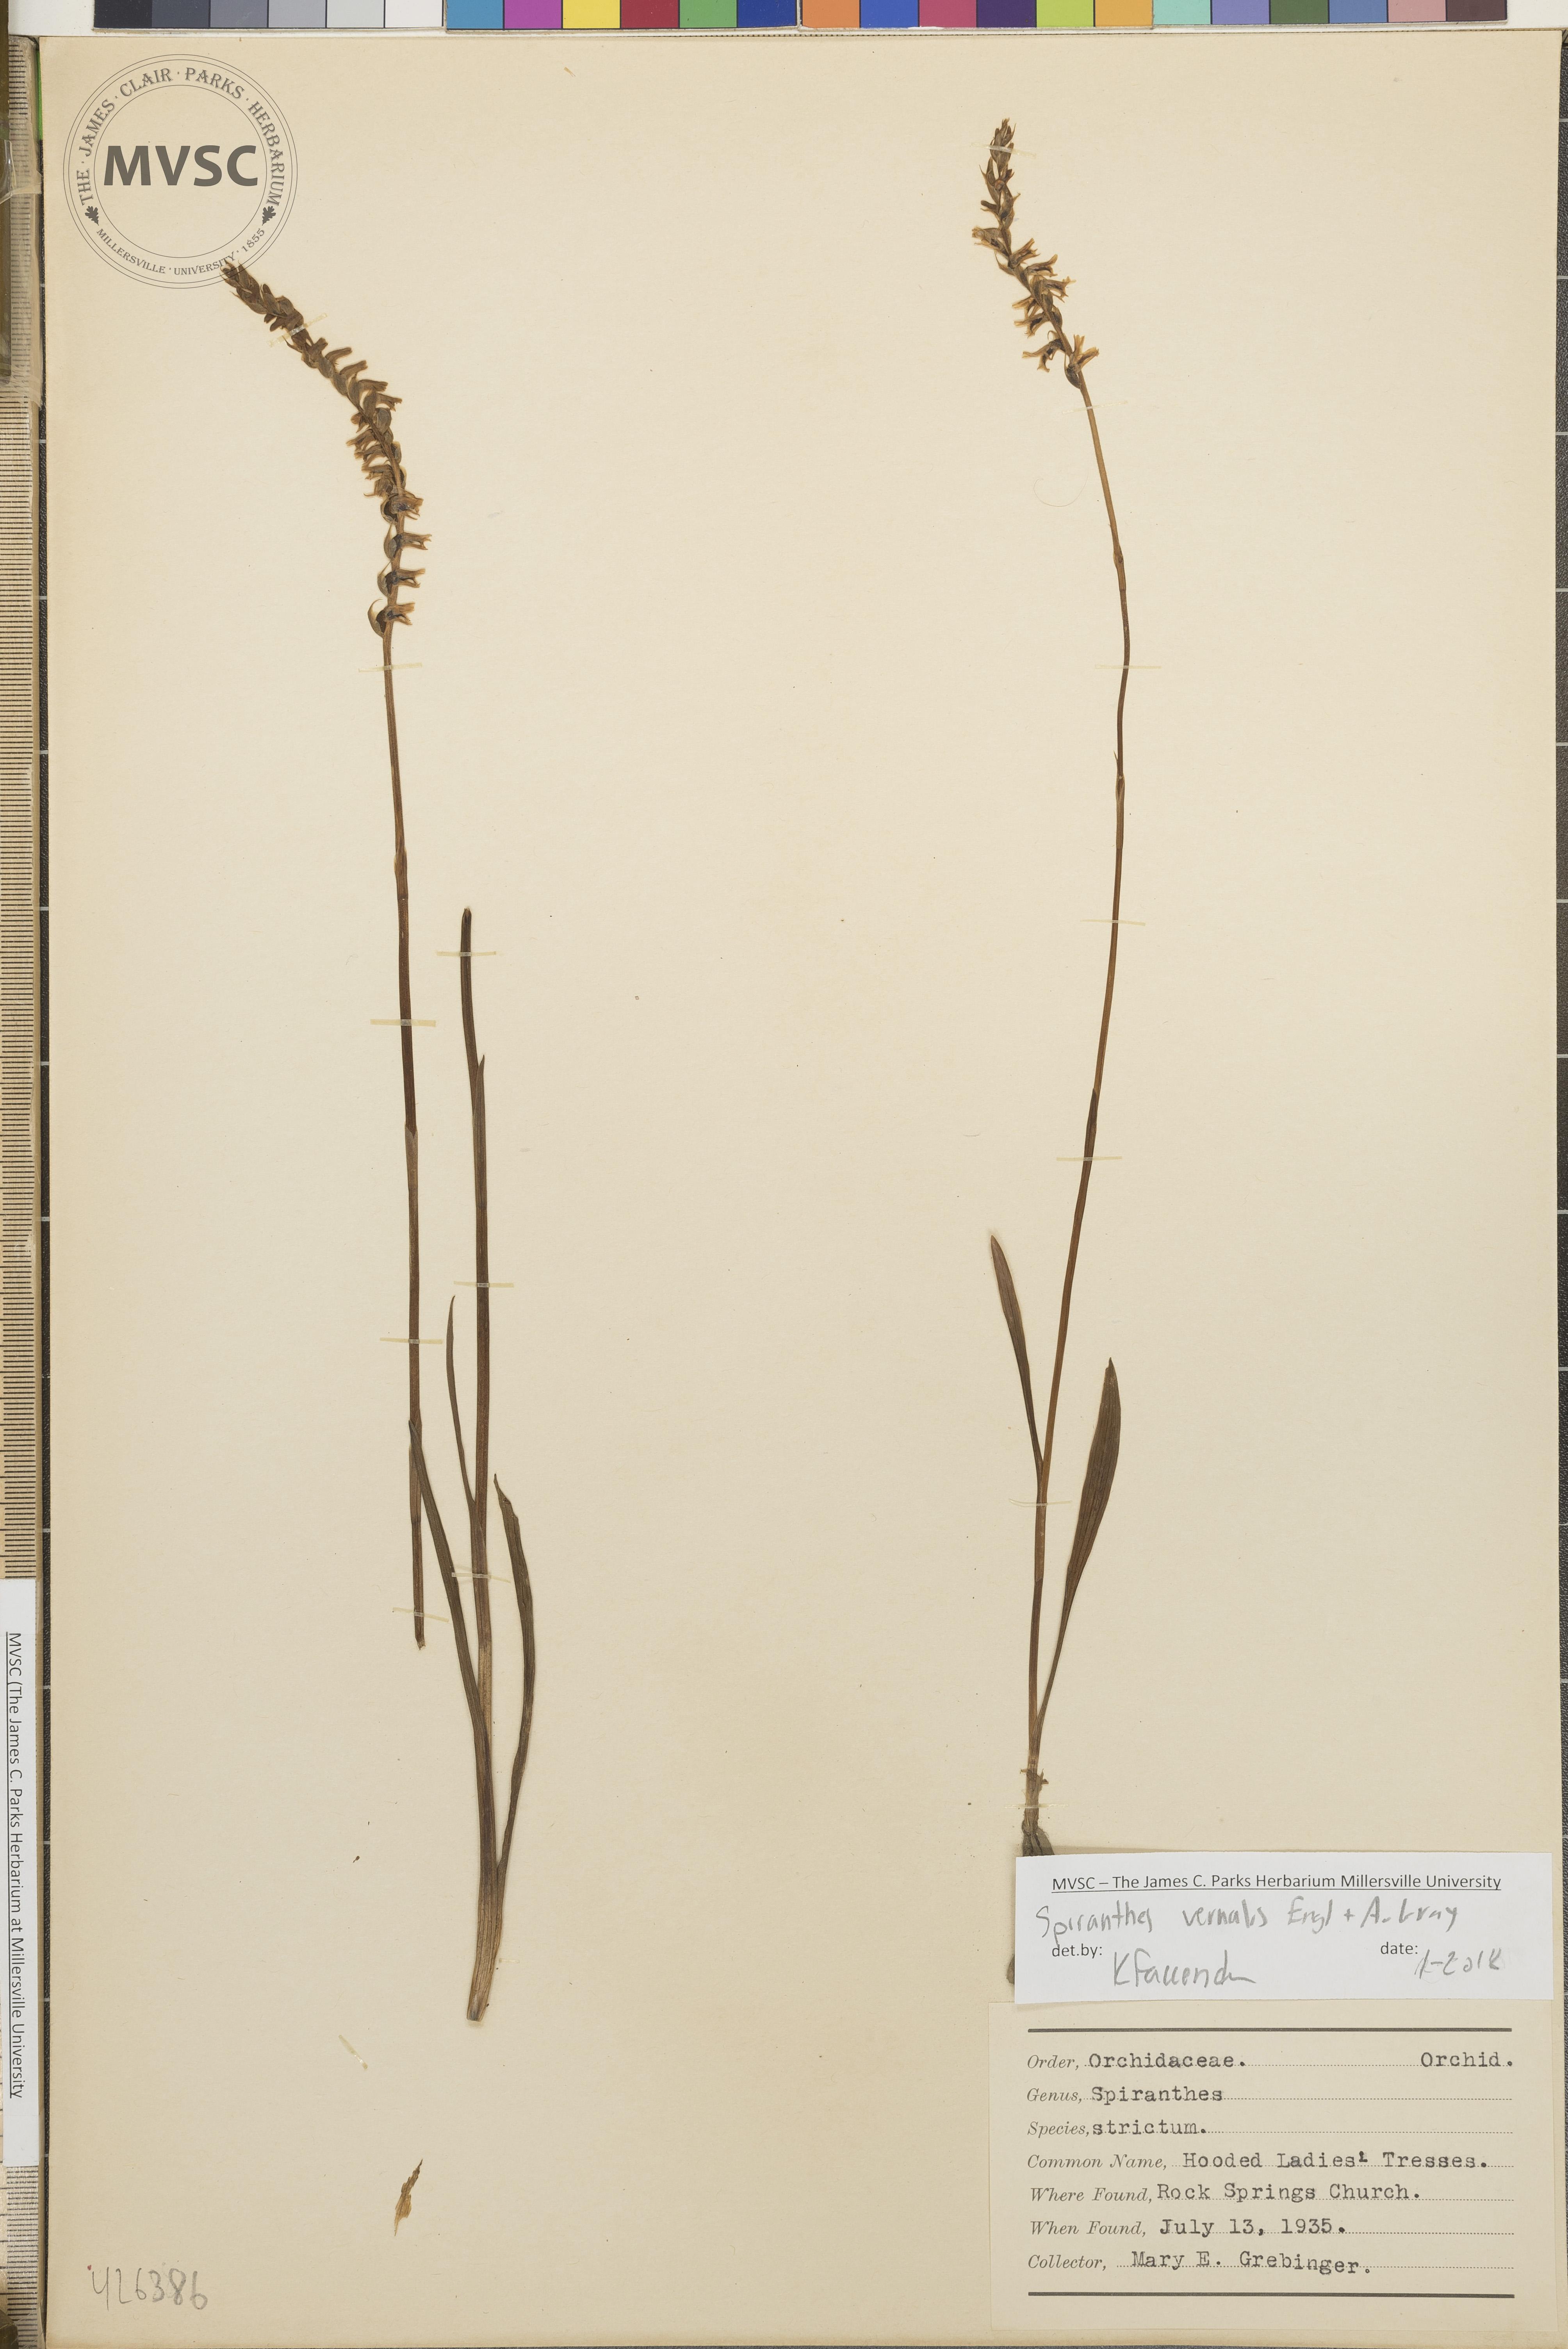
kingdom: Plantae
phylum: Tracheophyta
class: Liliopsida
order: Asparagales
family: Orchidaceae
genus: Spiranthes
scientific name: Spiranthes vernalis
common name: Hooded Ladies'-tresses
